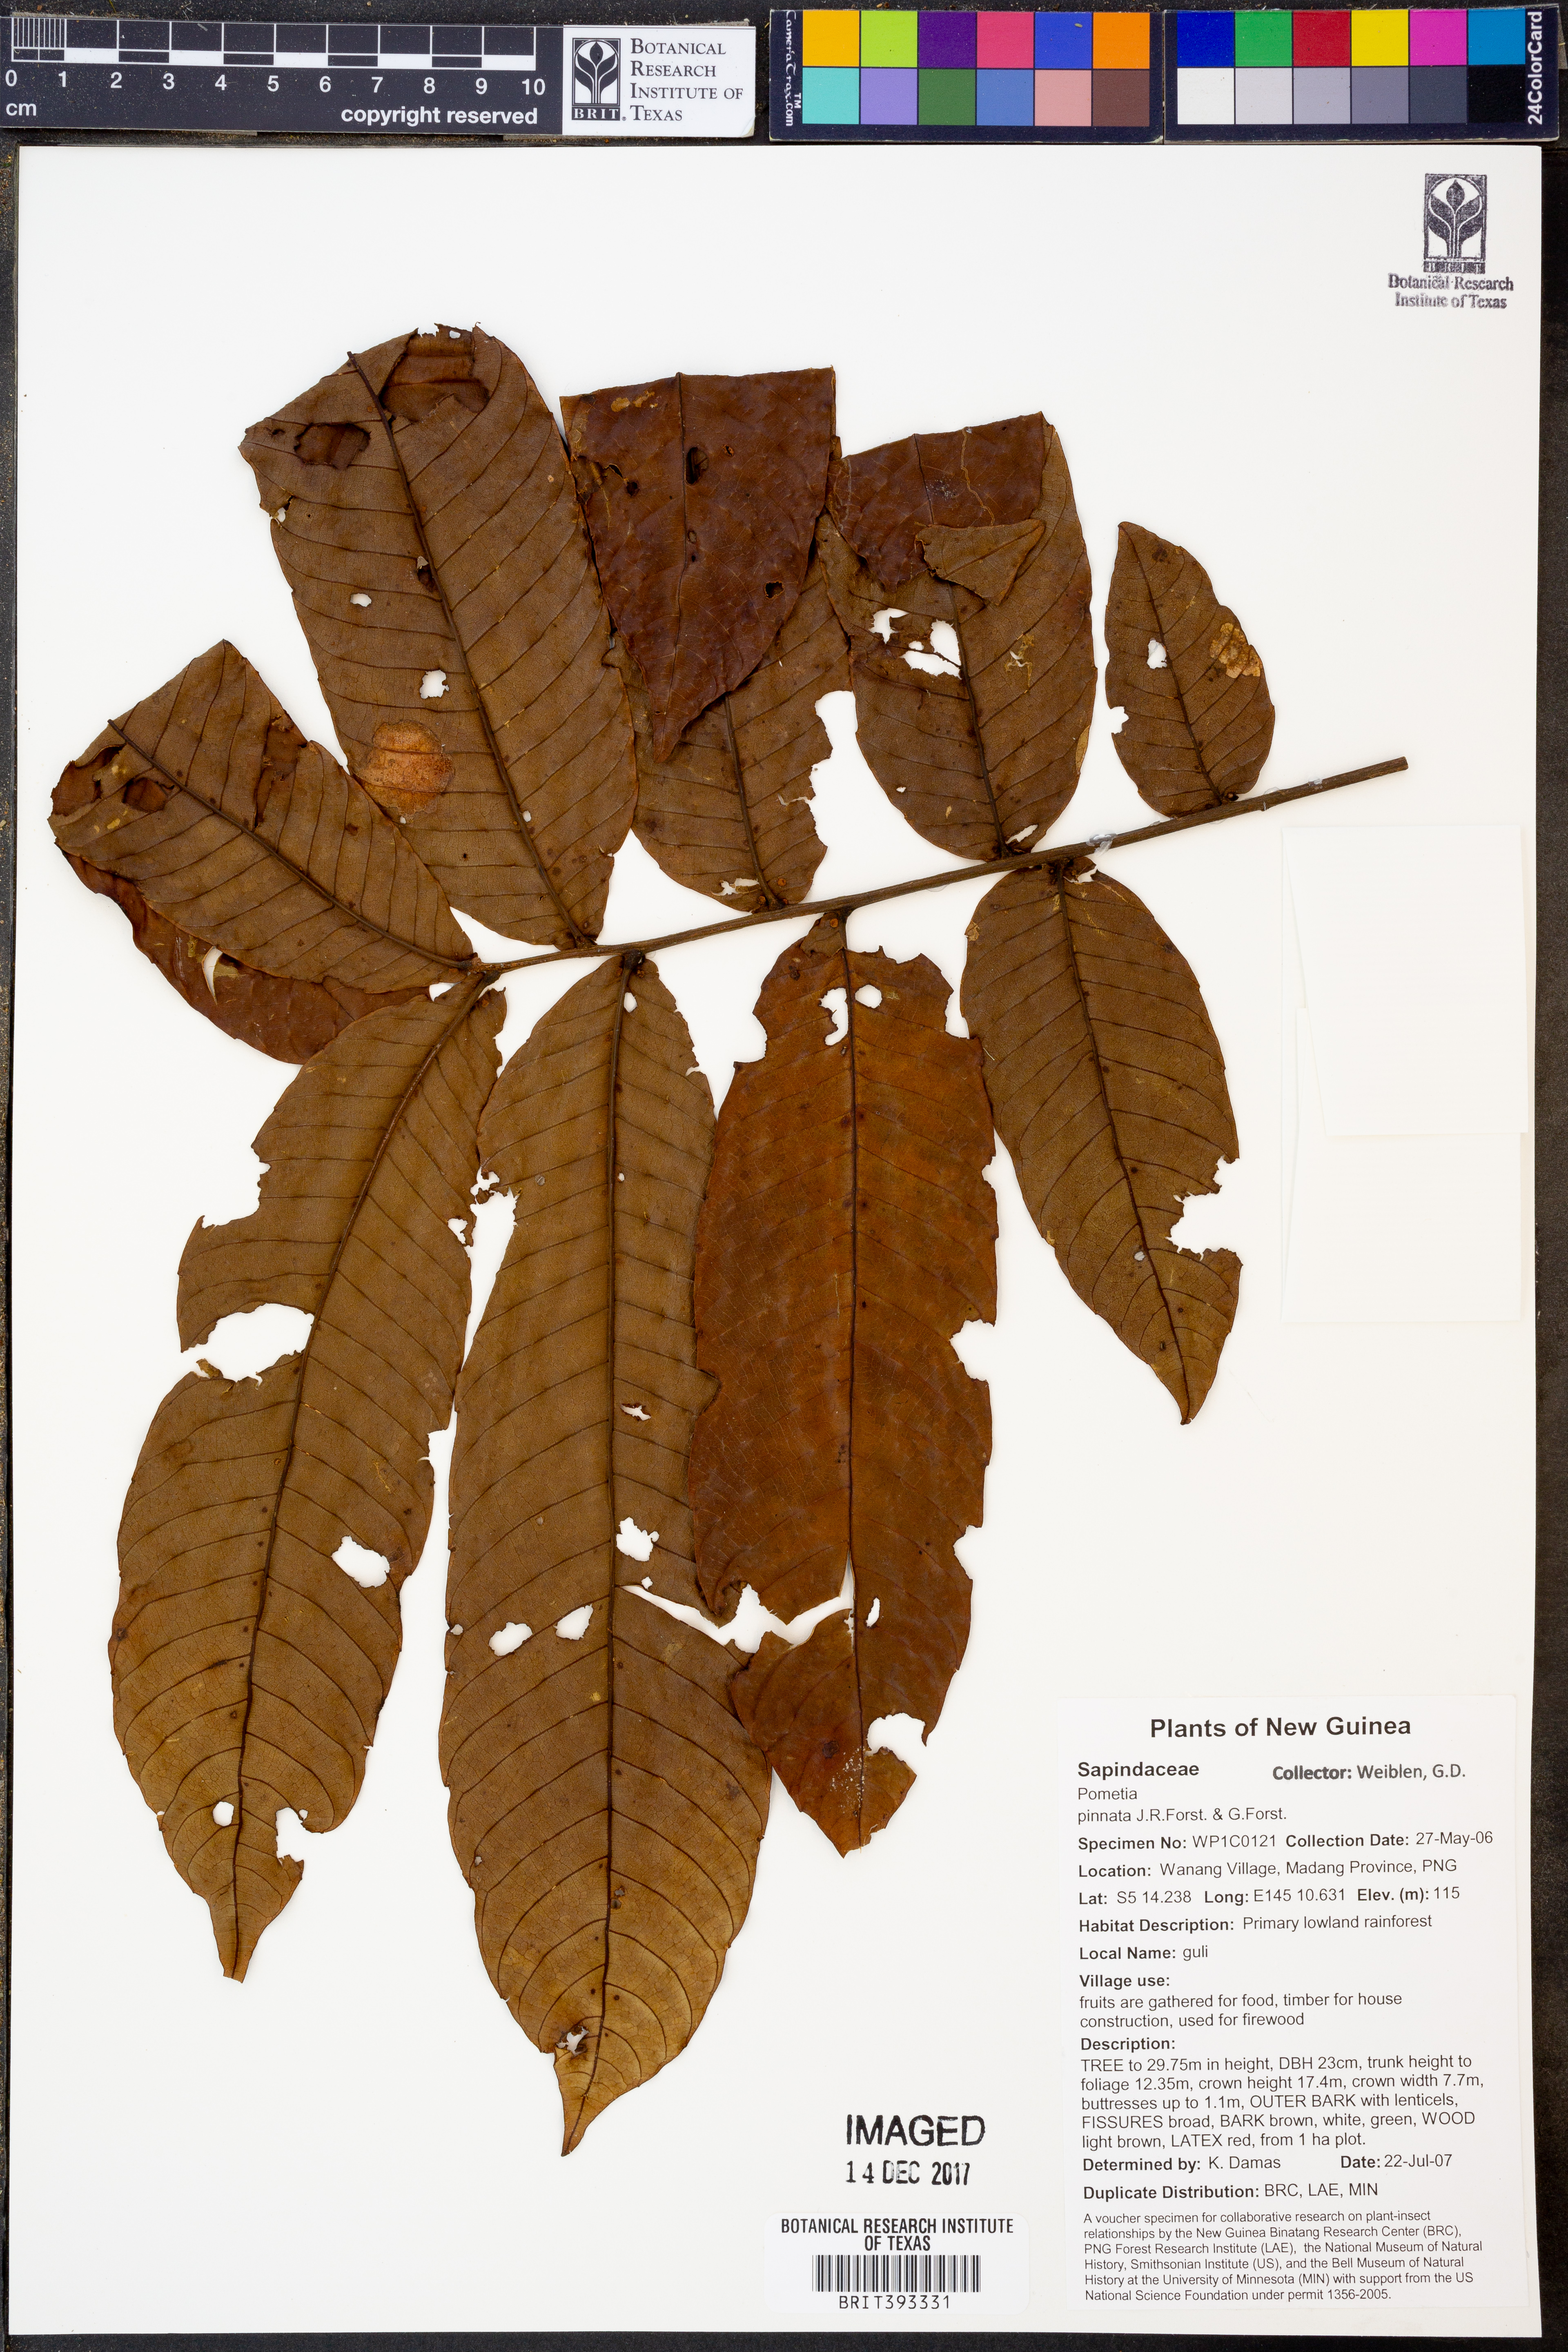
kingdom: Plantae
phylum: Tracheophyta
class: Magnoliopsida
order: Sapindales
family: Sapindaceae
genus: Pometia
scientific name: Pometia pinnata
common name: Oceanic lychee
